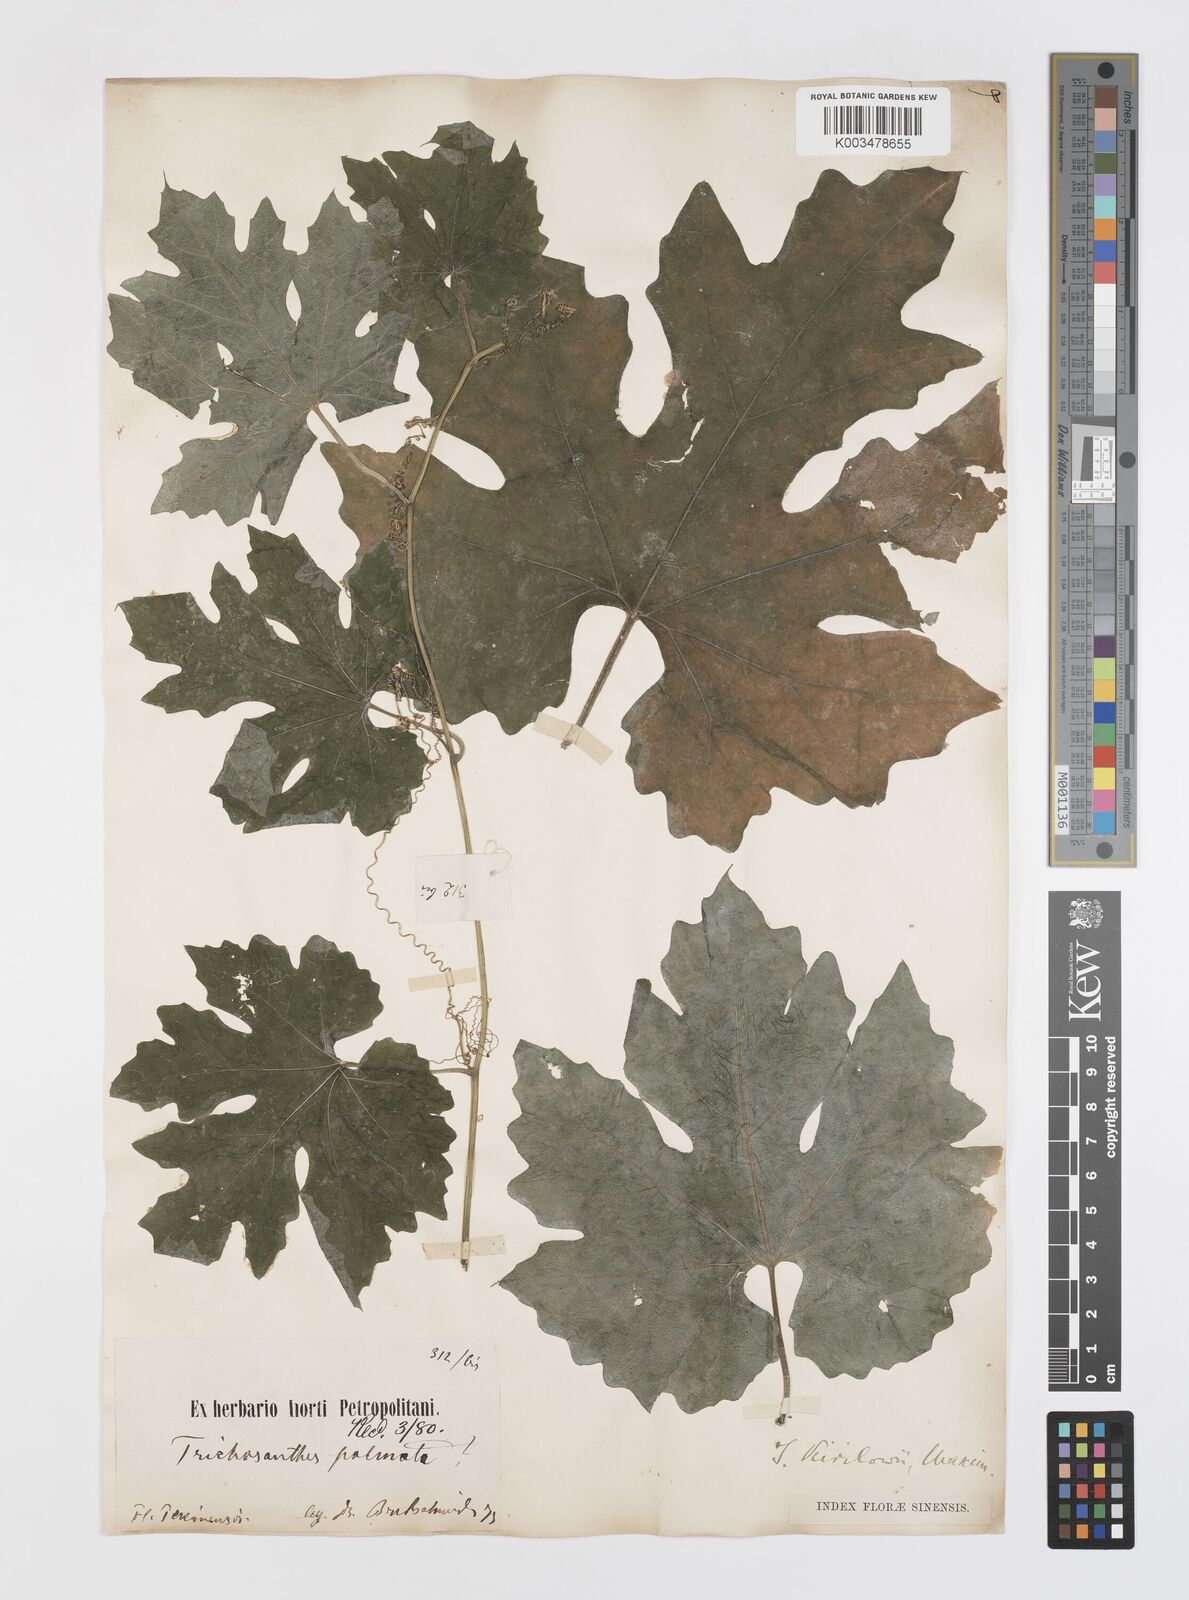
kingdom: Plantae
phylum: Tracheophyta
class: Magnoliopsida
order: Cucurbitales
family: Cucurbitaceae
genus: Trichosanthes
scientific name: Trichosanthes kirilowii
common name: Chinese-cucumber
